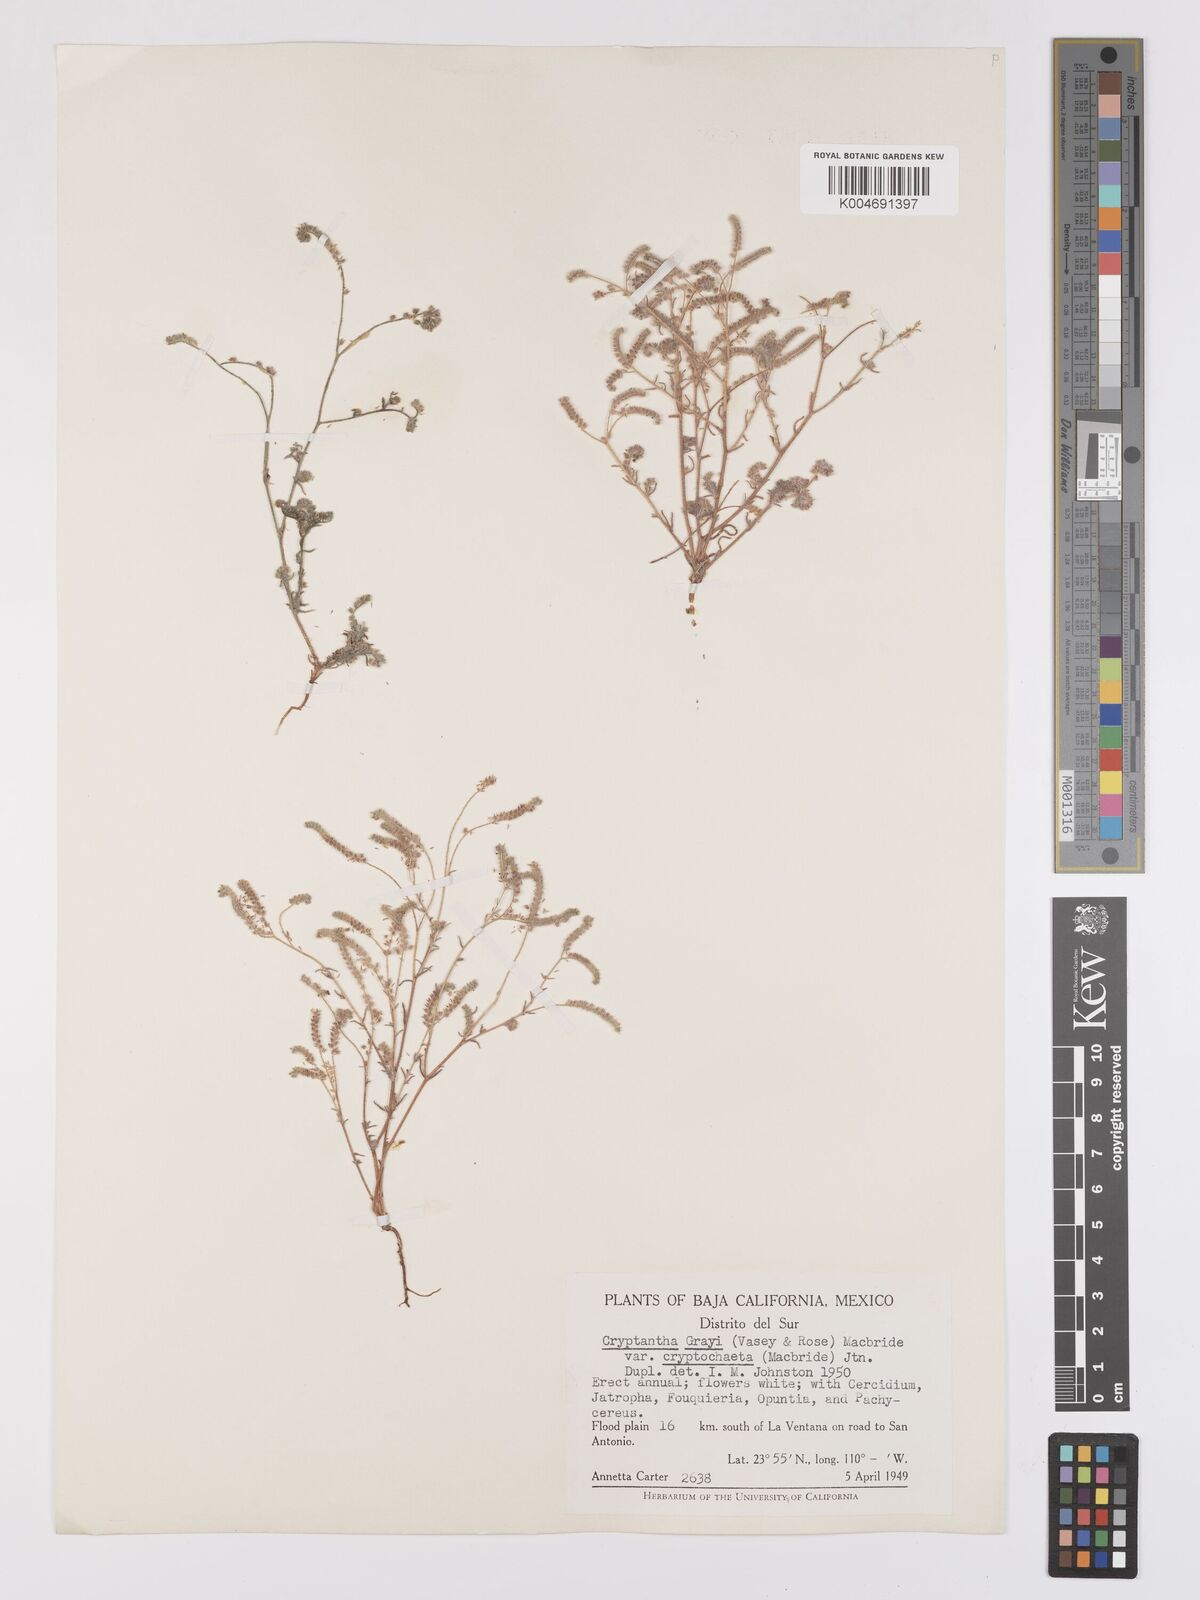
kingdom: Plantae
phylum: Tracheophyta
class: Magnoliopsida
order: Boraginales
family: Boraginaceae
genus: Johnstonella
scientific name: Johnstonella grayi
